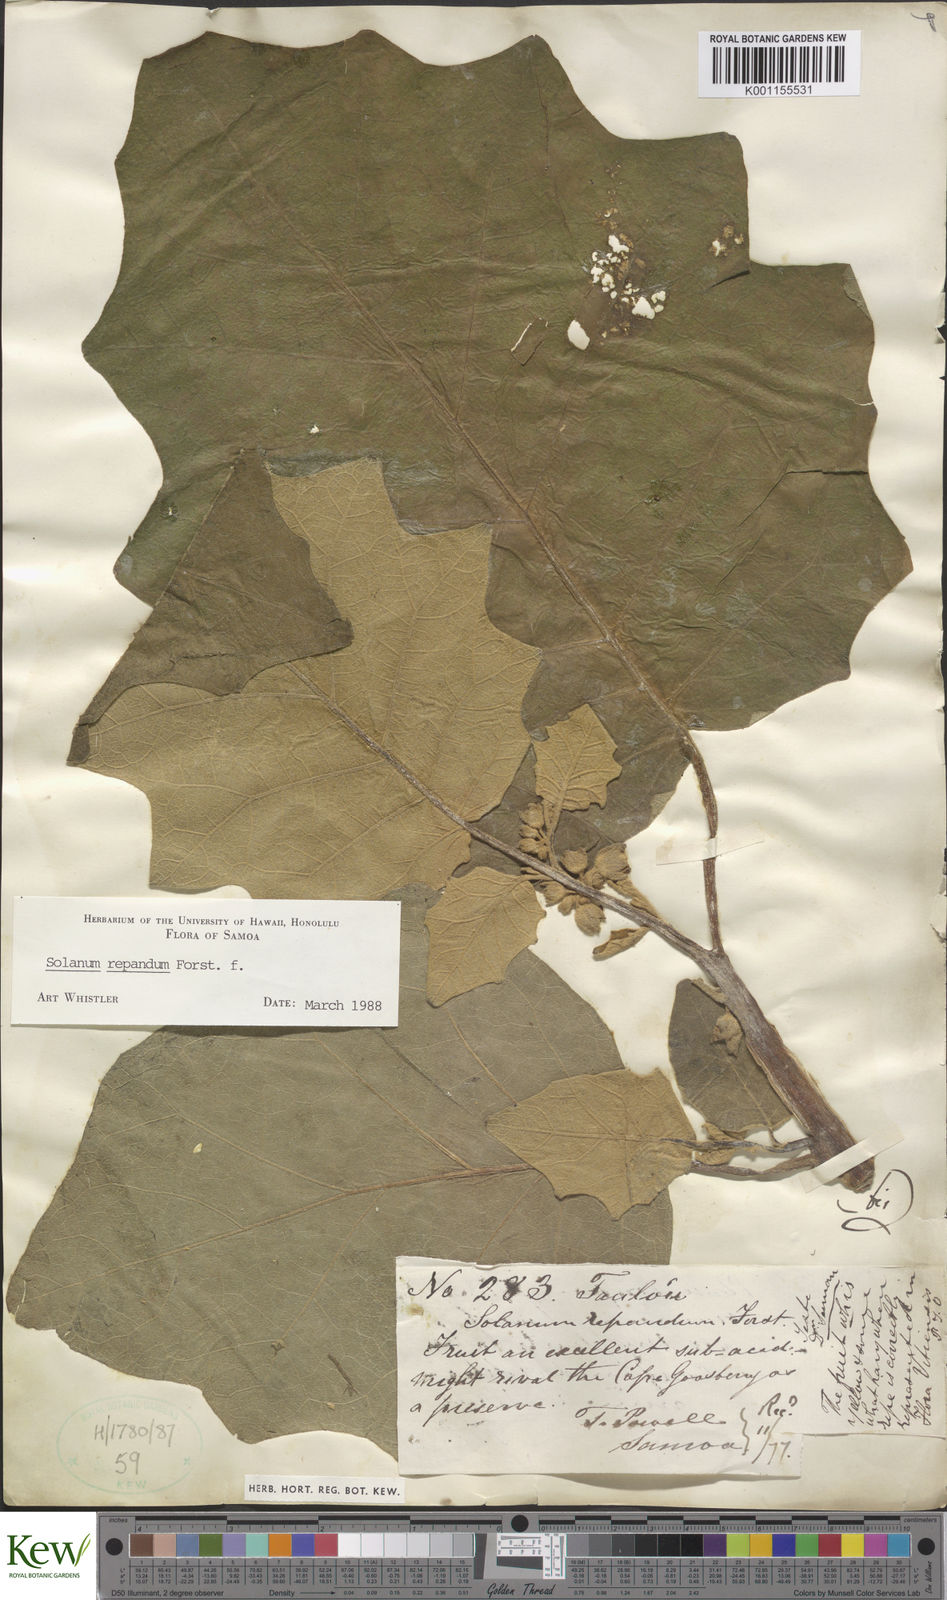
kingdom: Plantae
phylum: Tracheophyta
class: Magnoliopsida
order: Solanales
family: Solanaceae
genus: Solanum
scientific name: Solanum repandum
